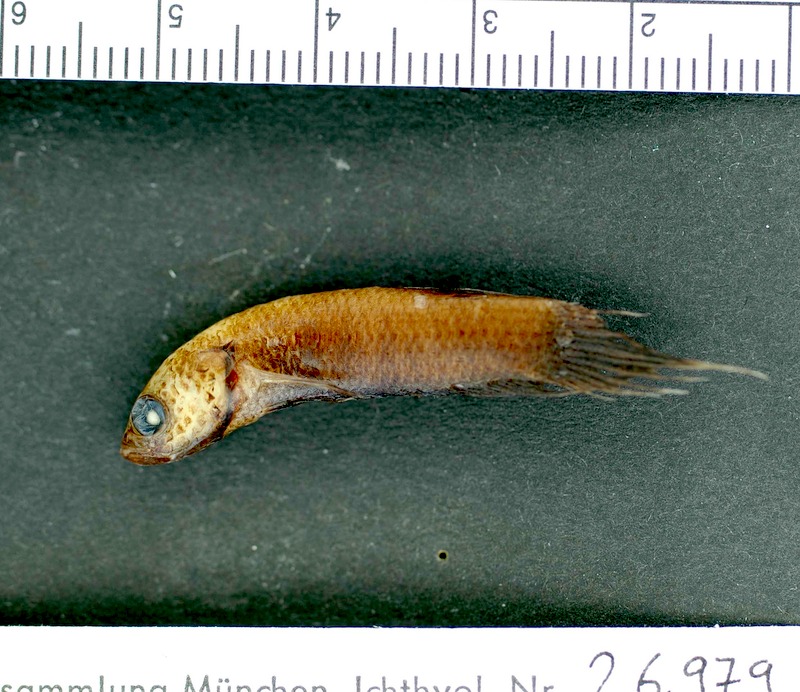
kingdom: Animalia
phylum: Chordata
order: Perciformes
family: Osphronemidae
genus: Betta
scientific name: Betta strohi
